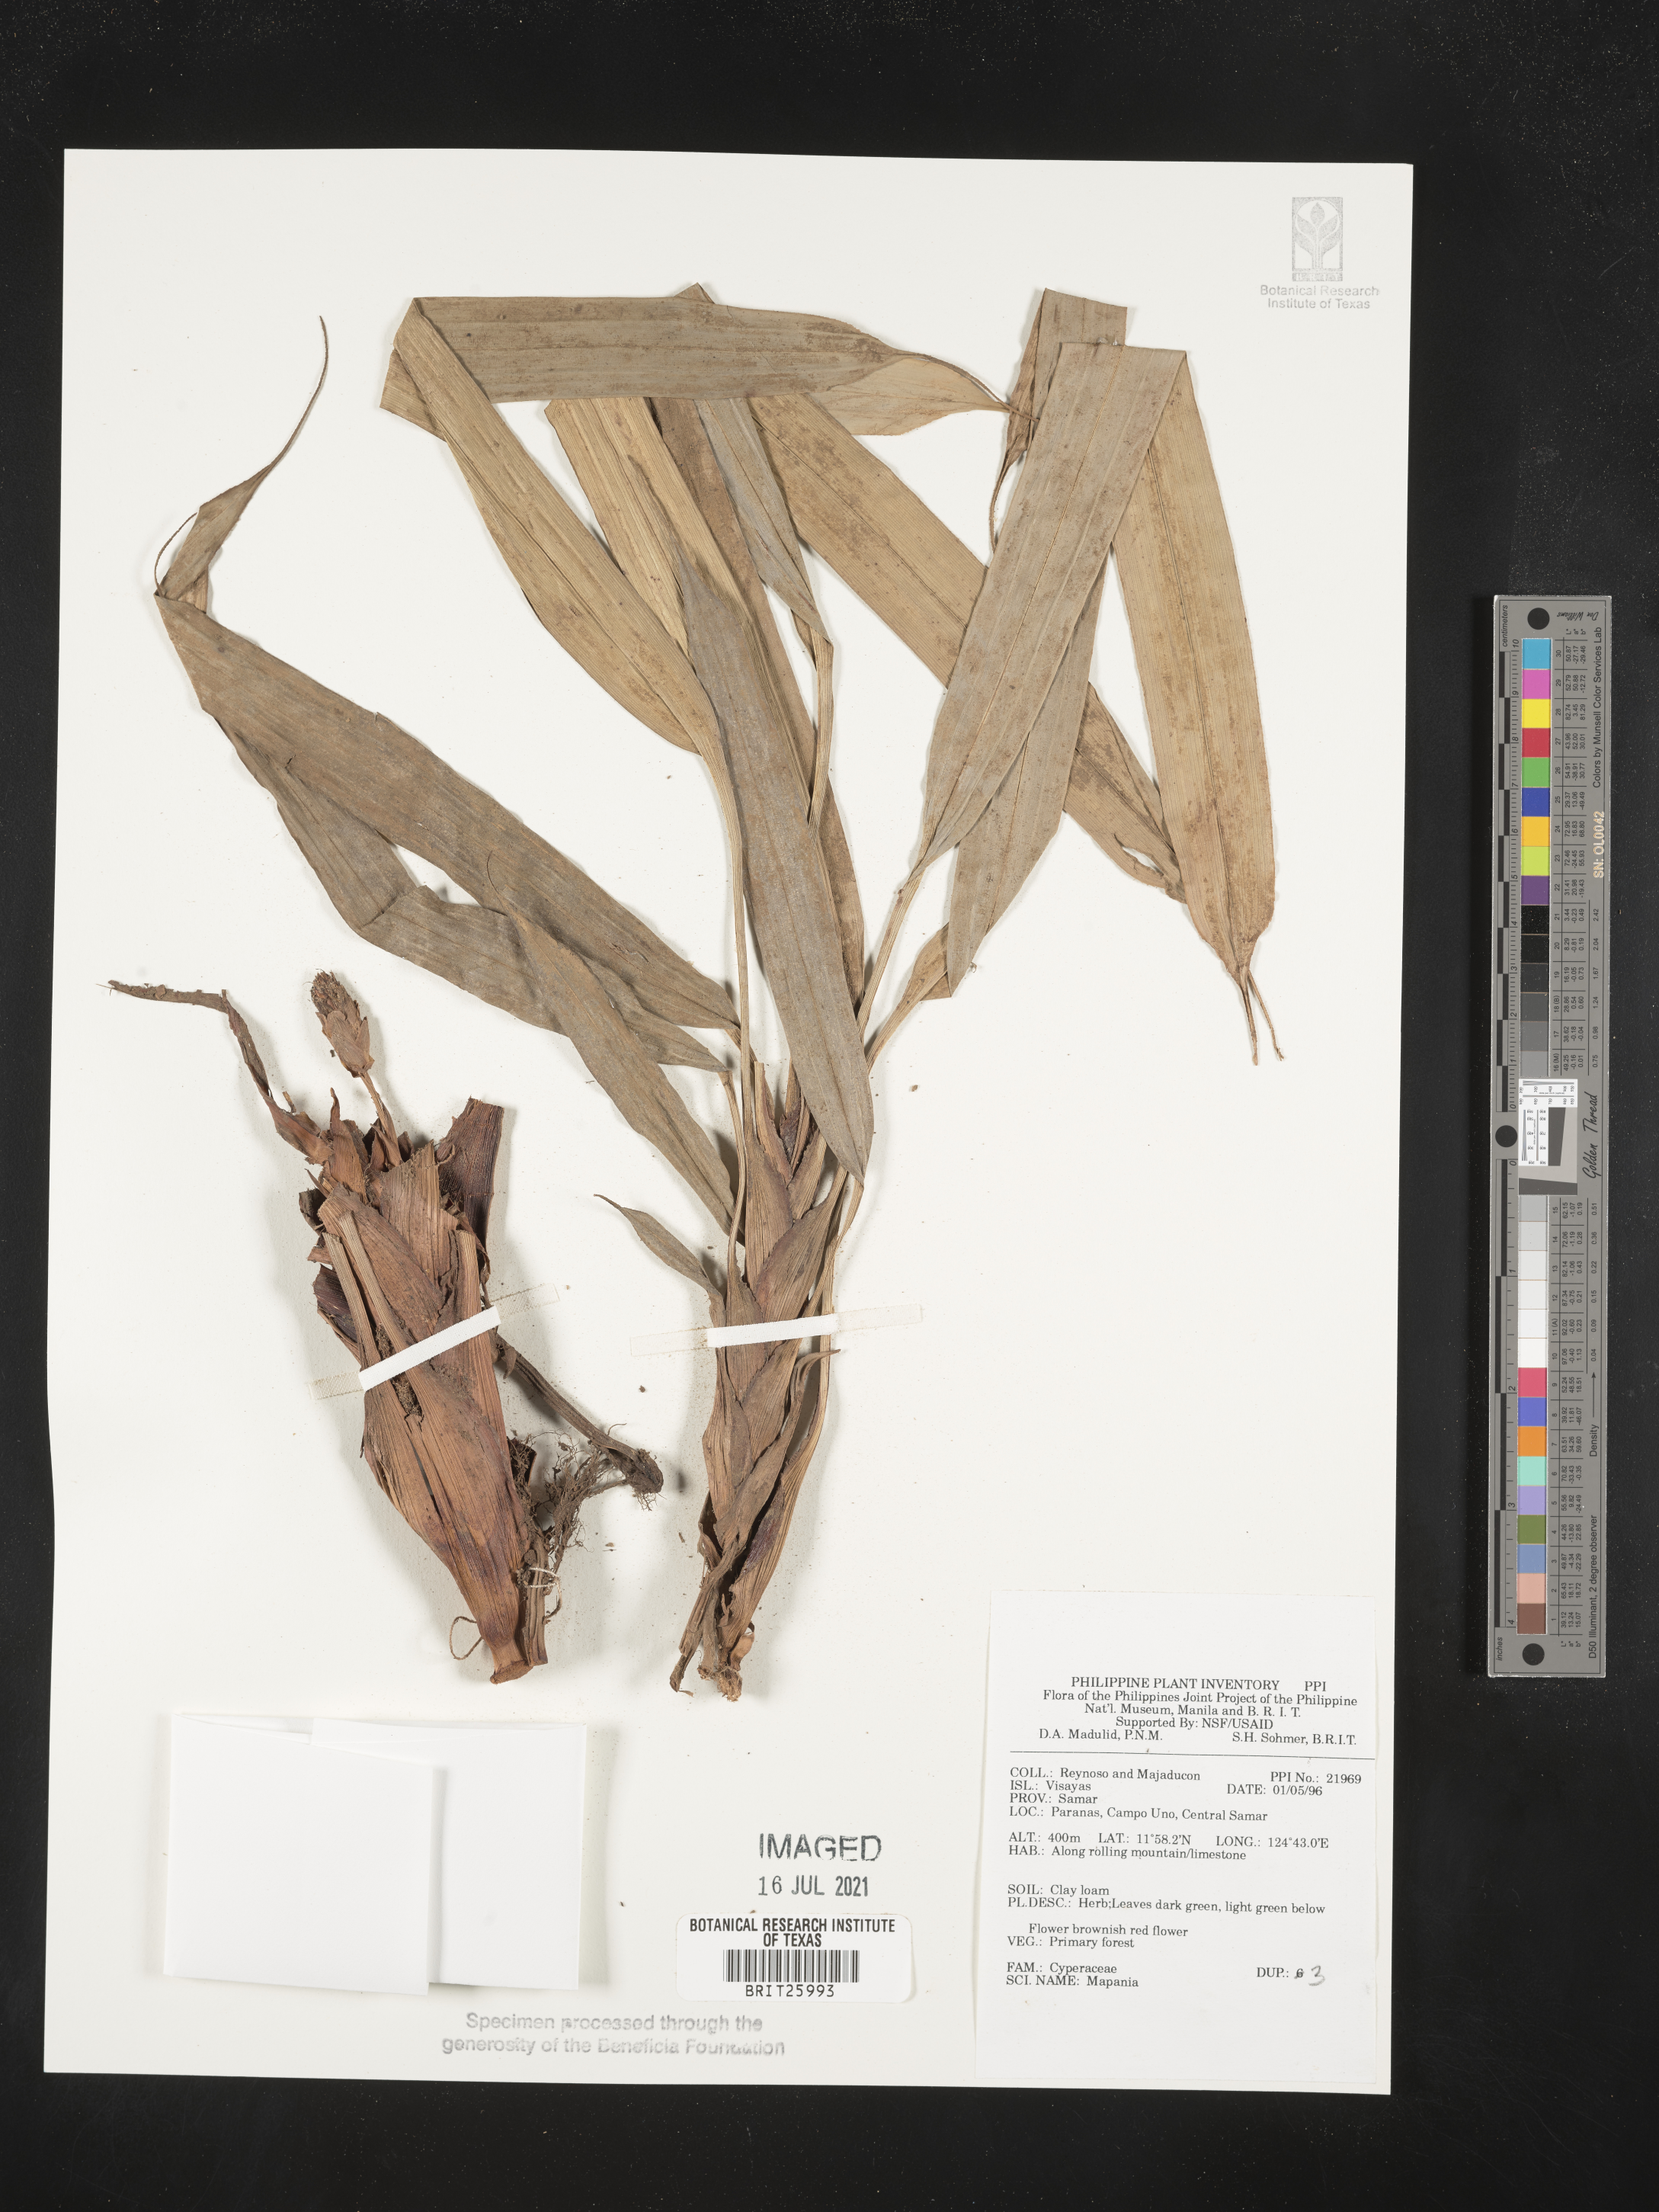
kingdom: Plantae
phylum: Tracheophyta
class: Liliopsida
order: Poales
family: Cyperaceae
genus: Mapania
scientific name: Mapania
